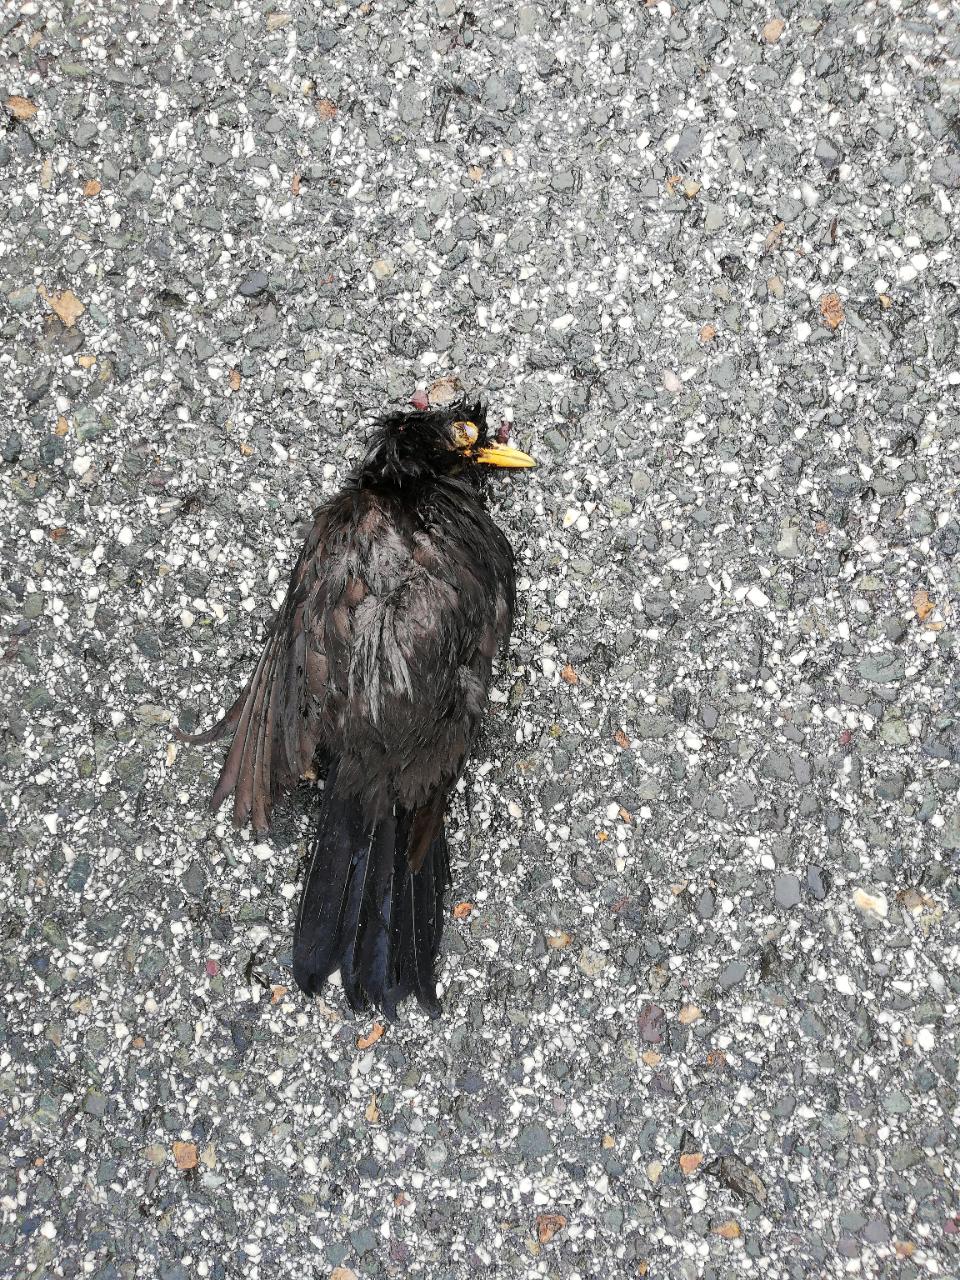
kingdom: Animalia
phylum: Chordata
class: Aves
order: Passeriformes
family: Turdidae
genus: Turdus
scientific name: Turdus merula
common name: Common blackbird
